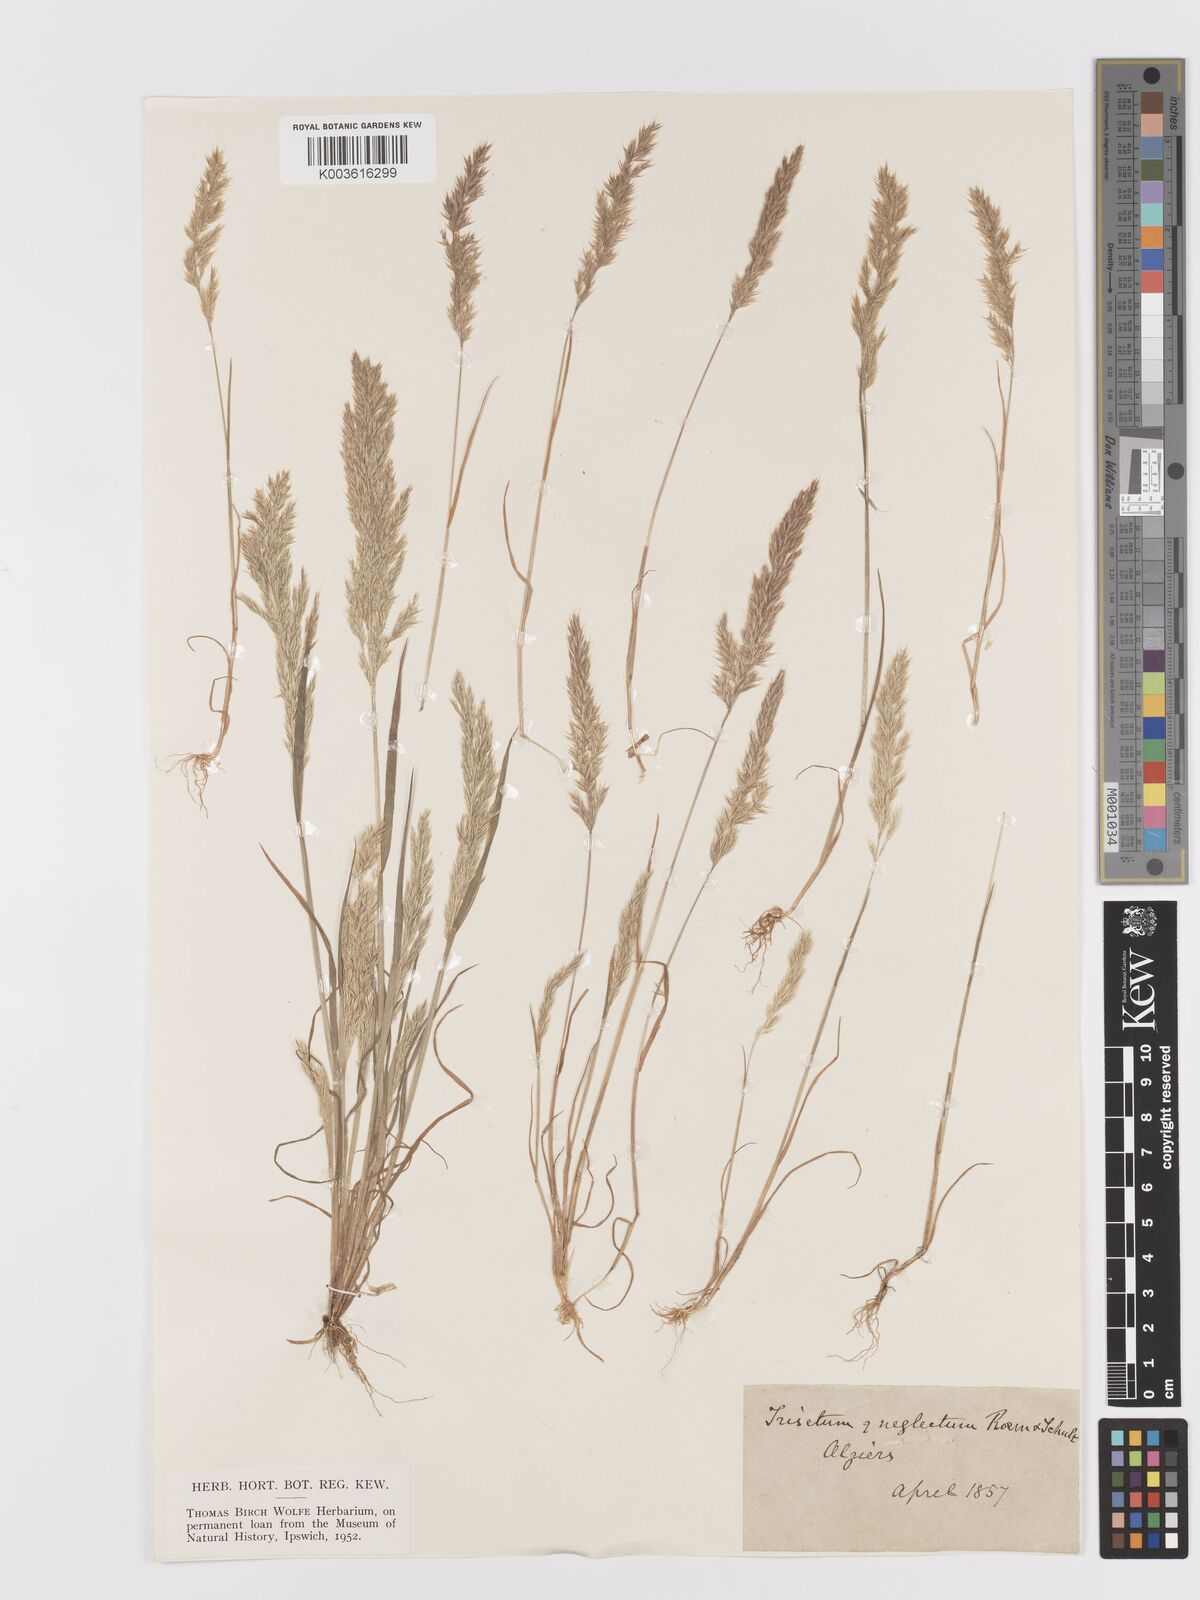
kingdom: Plantae
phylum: Tracheophyta
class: Liliopsida
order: Poales
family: Poaceae
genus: Trisetaria
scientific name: Trisetaria panicea
